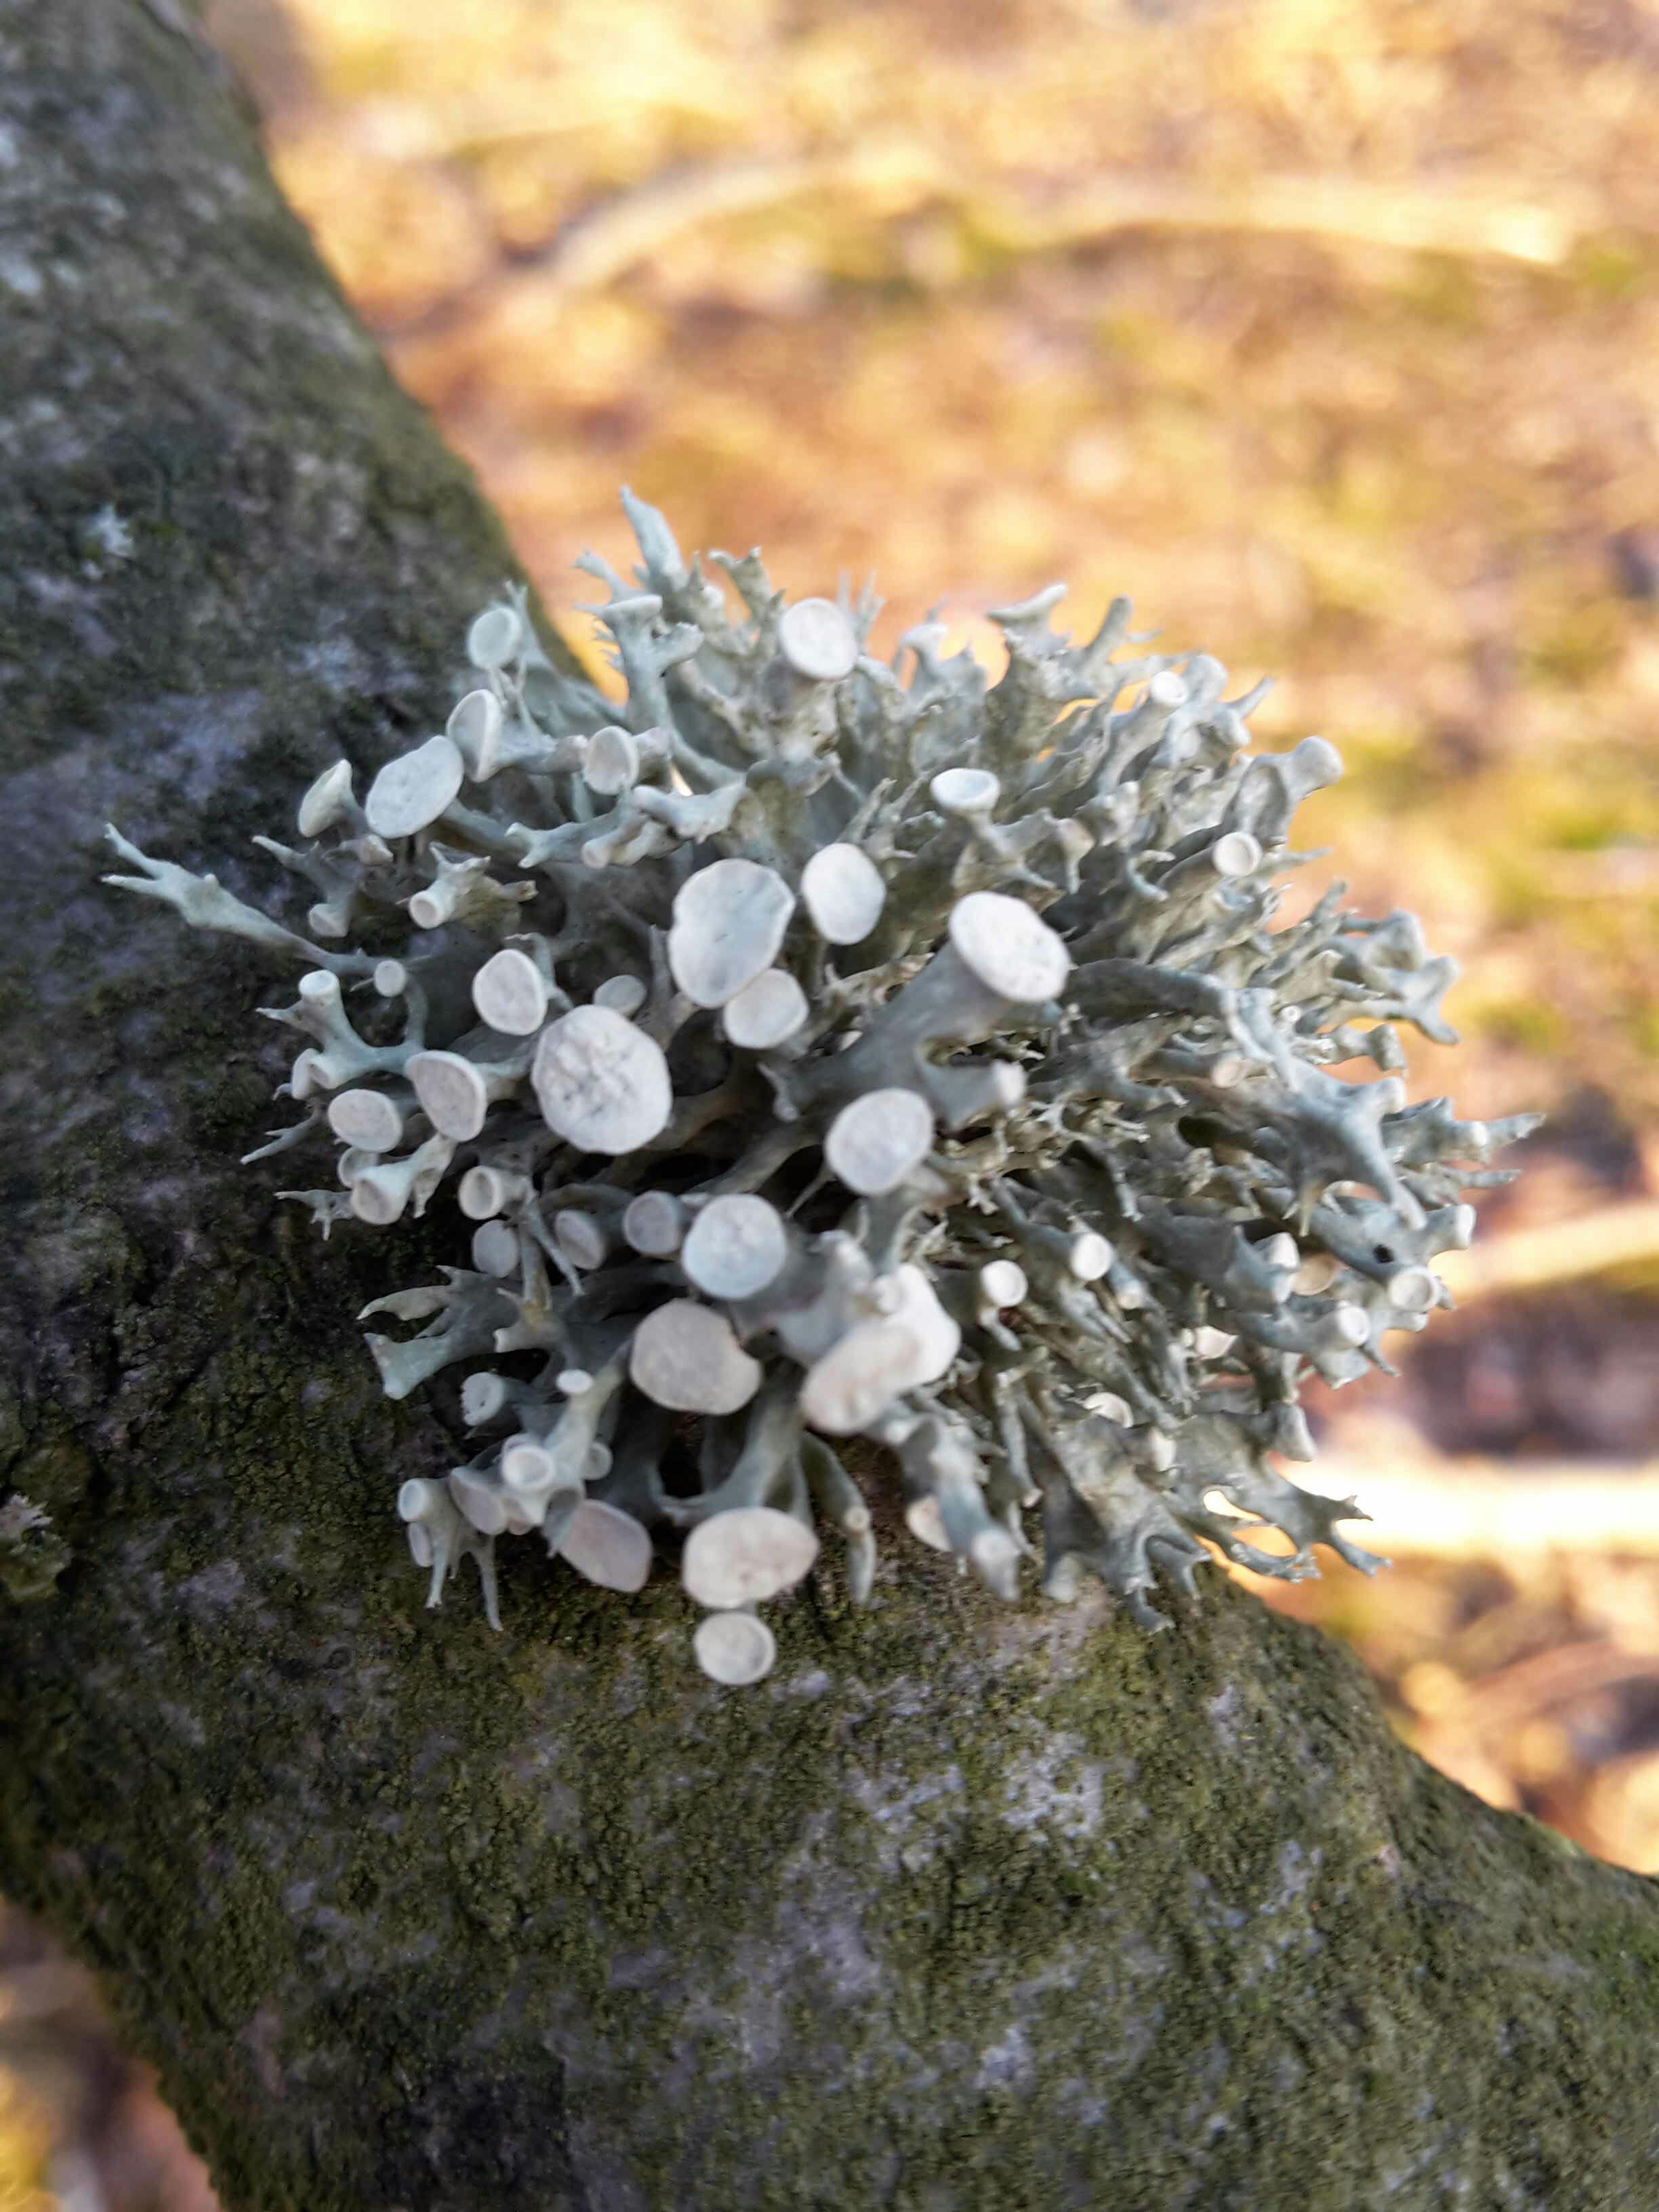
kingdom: Fungi
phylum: Ascomycota
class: Lecanoromycetes
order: Lecanorales
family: Ramalinaceae
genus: Ramalina
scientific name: Ramalina fastigiata
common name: tue-grenlav
